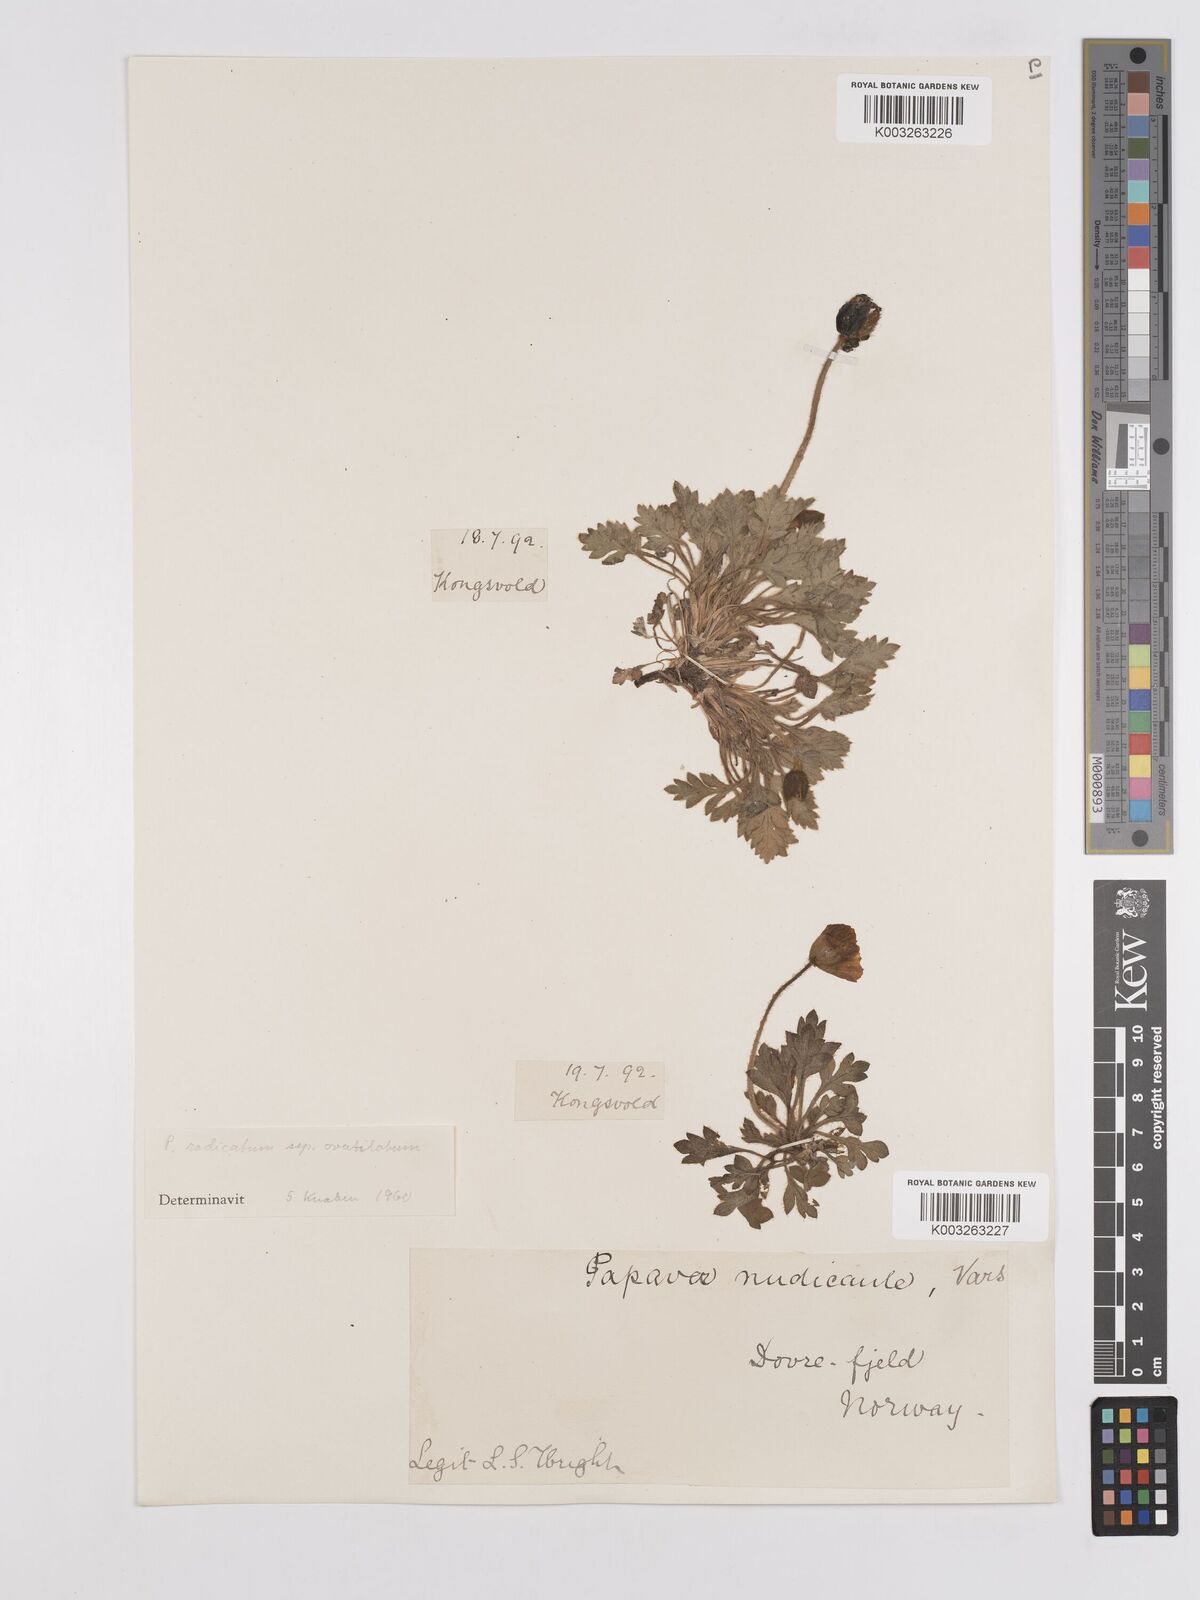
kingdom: Plantae
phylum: Tracheophyta
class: Magnoliopsida
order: Ranunculales
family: Papaveraceae
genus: Papaver
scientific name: Papaver radicatum
